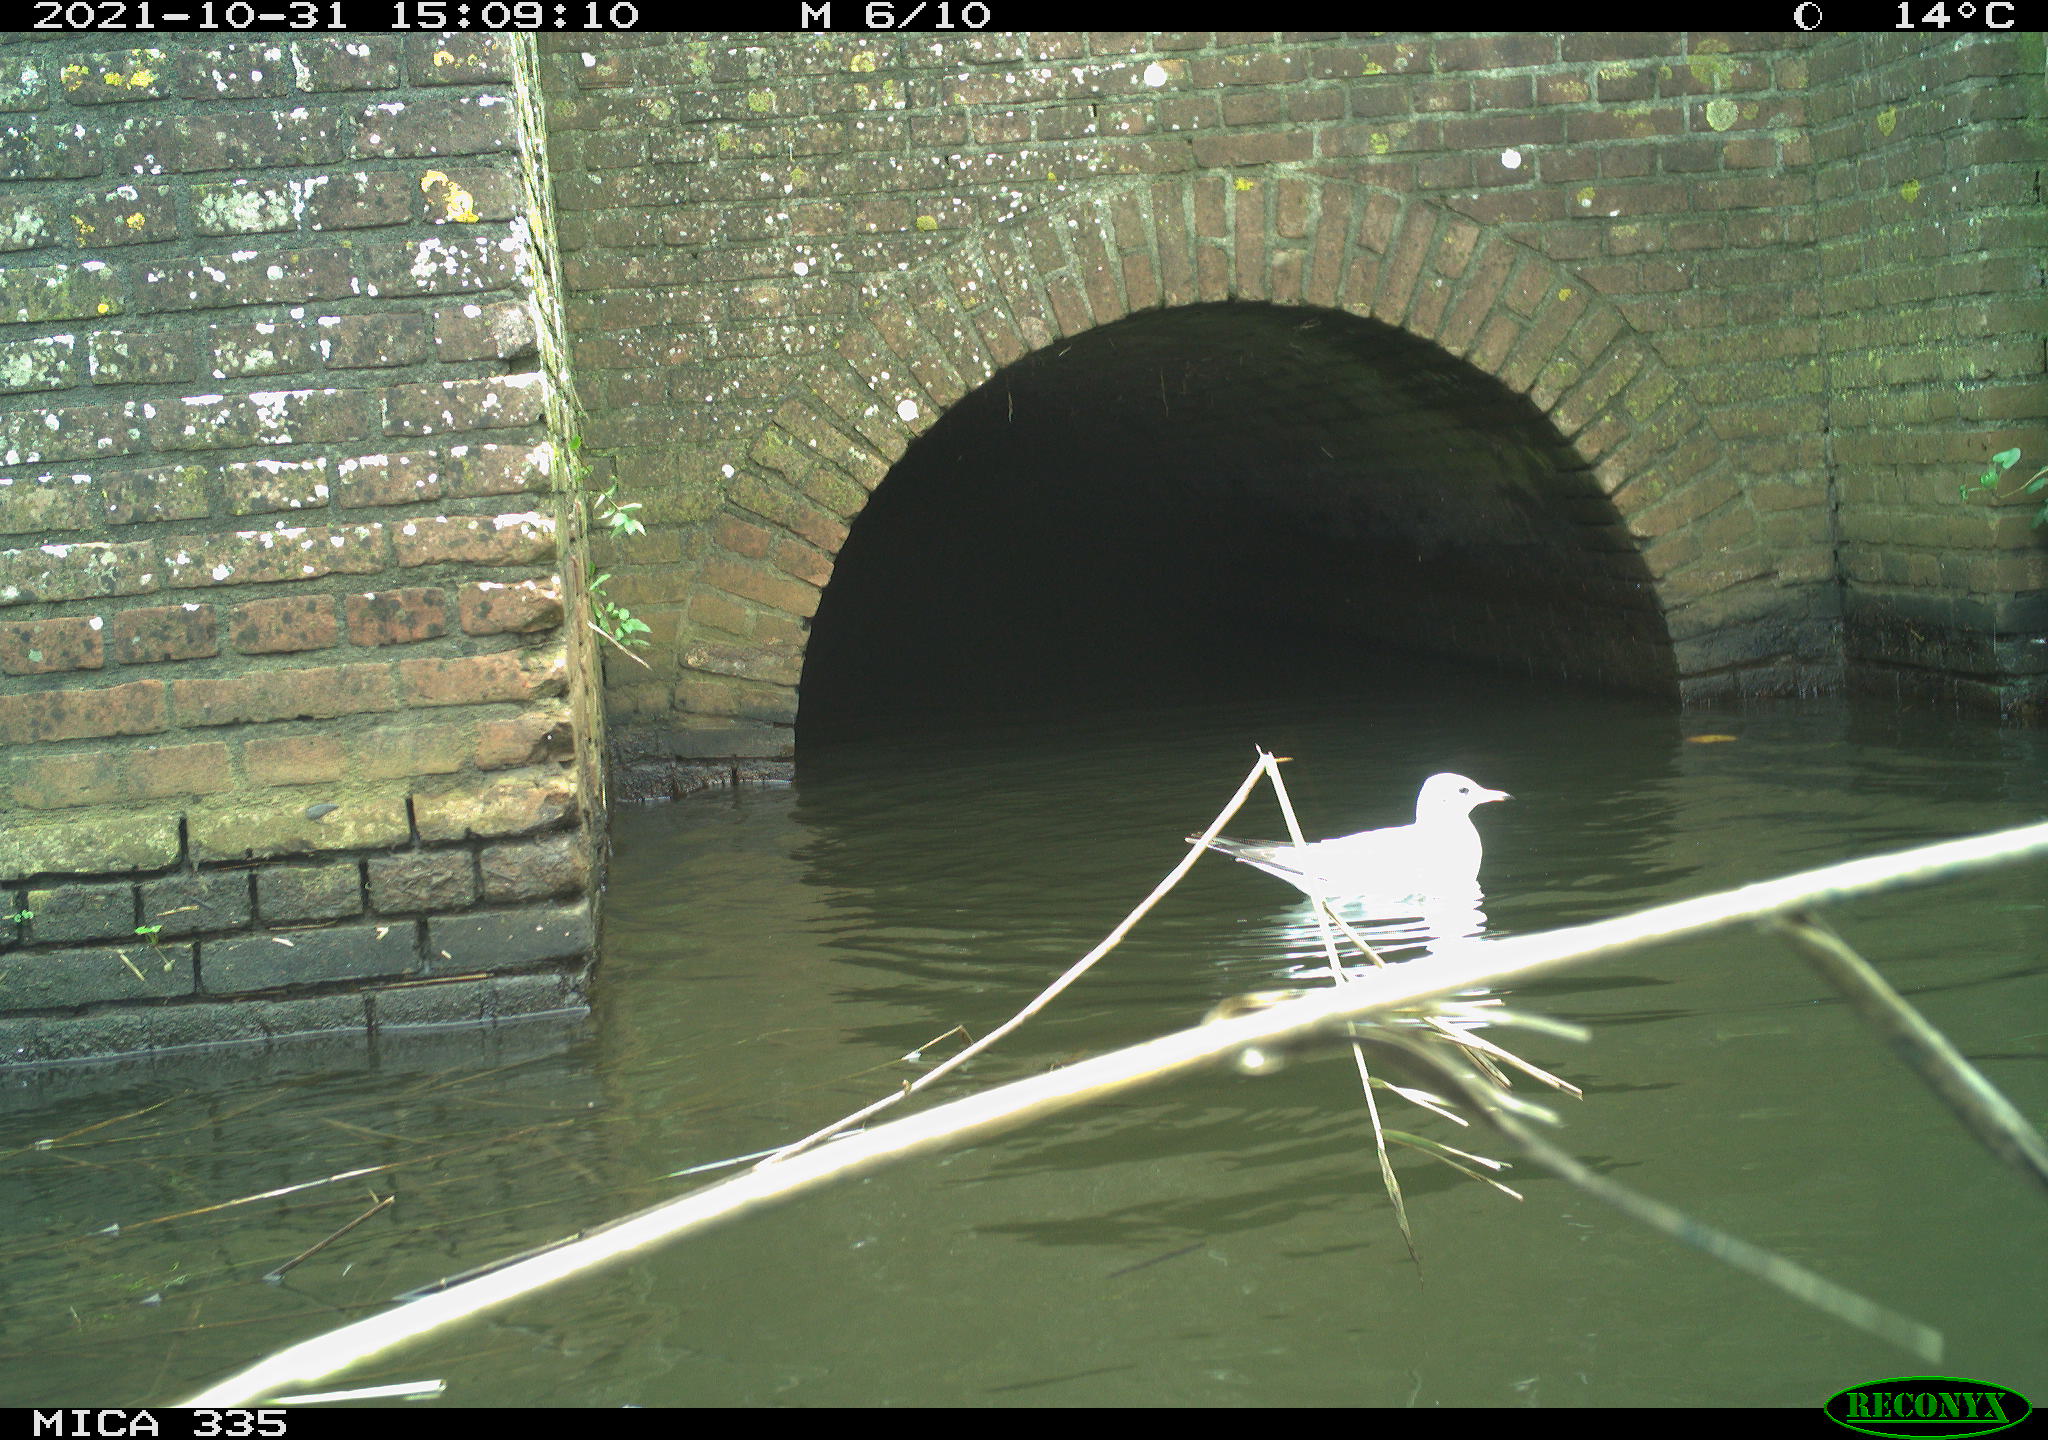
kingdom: Animalia
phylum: Chordata
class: Aves
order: Anseriformes
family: Anatidae
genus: Anas
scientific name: Anas platyrhynchos
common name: Mallard
